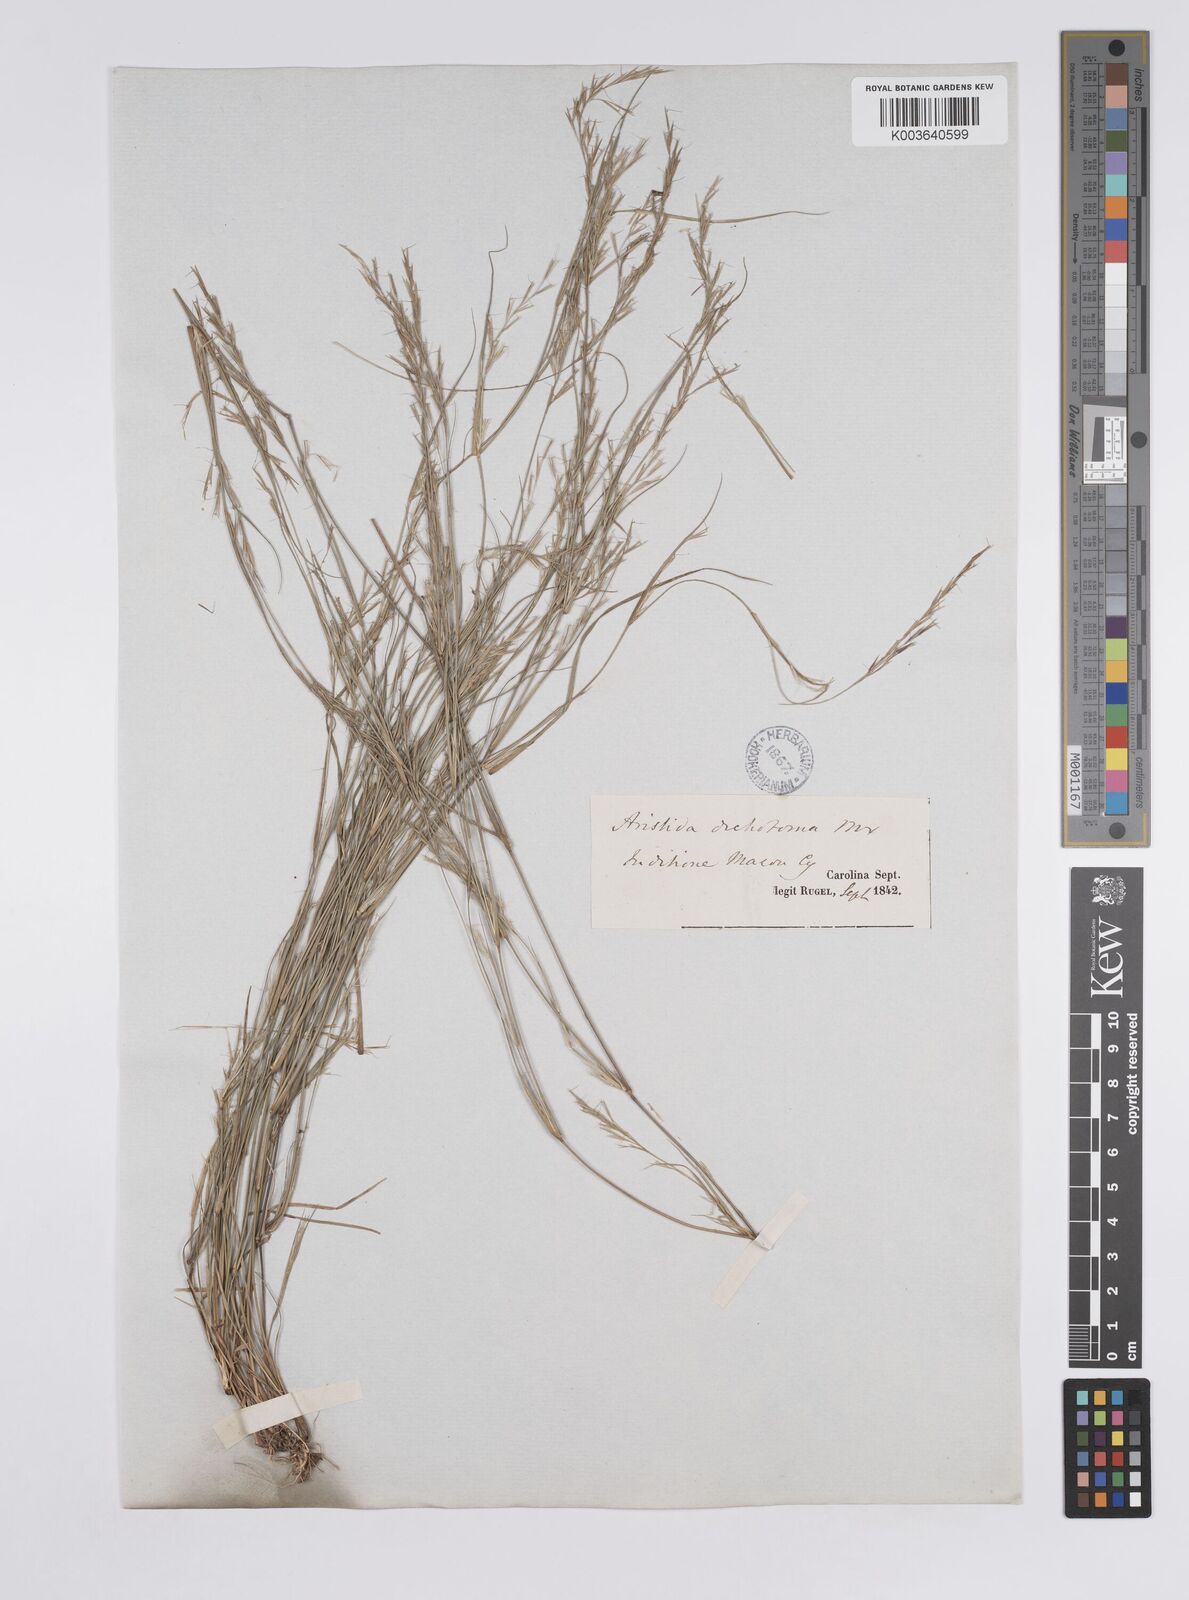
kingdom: Plantae
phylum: Tracheophyta
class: Liliopsida
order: Poales
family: Poaceae
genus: Aristida
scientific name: Aristida dichotoma
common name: Churchmouse three-awn
